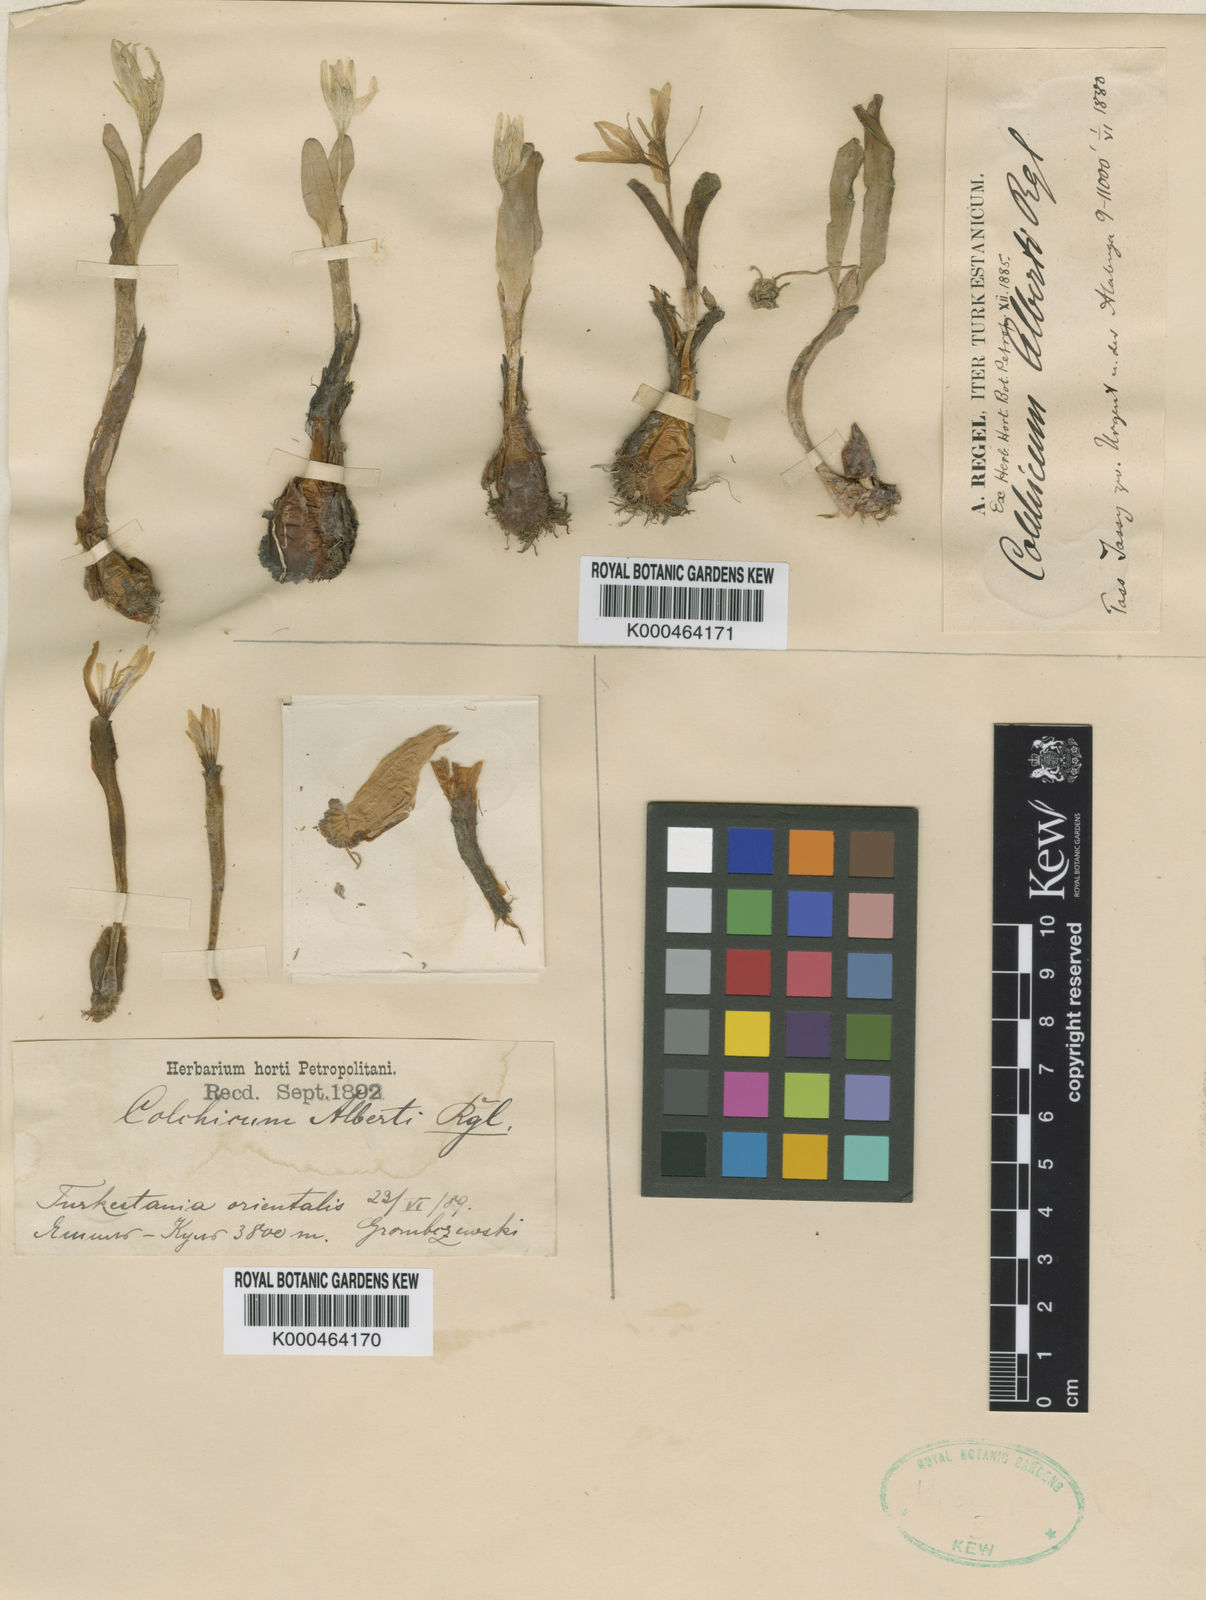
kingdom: Plantae
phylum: Tracheophyta
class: Liliopsida
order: Liliales
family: Colchicaceae
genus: Colchicum
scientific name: Colchicum luteum
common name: Indian colchicum
